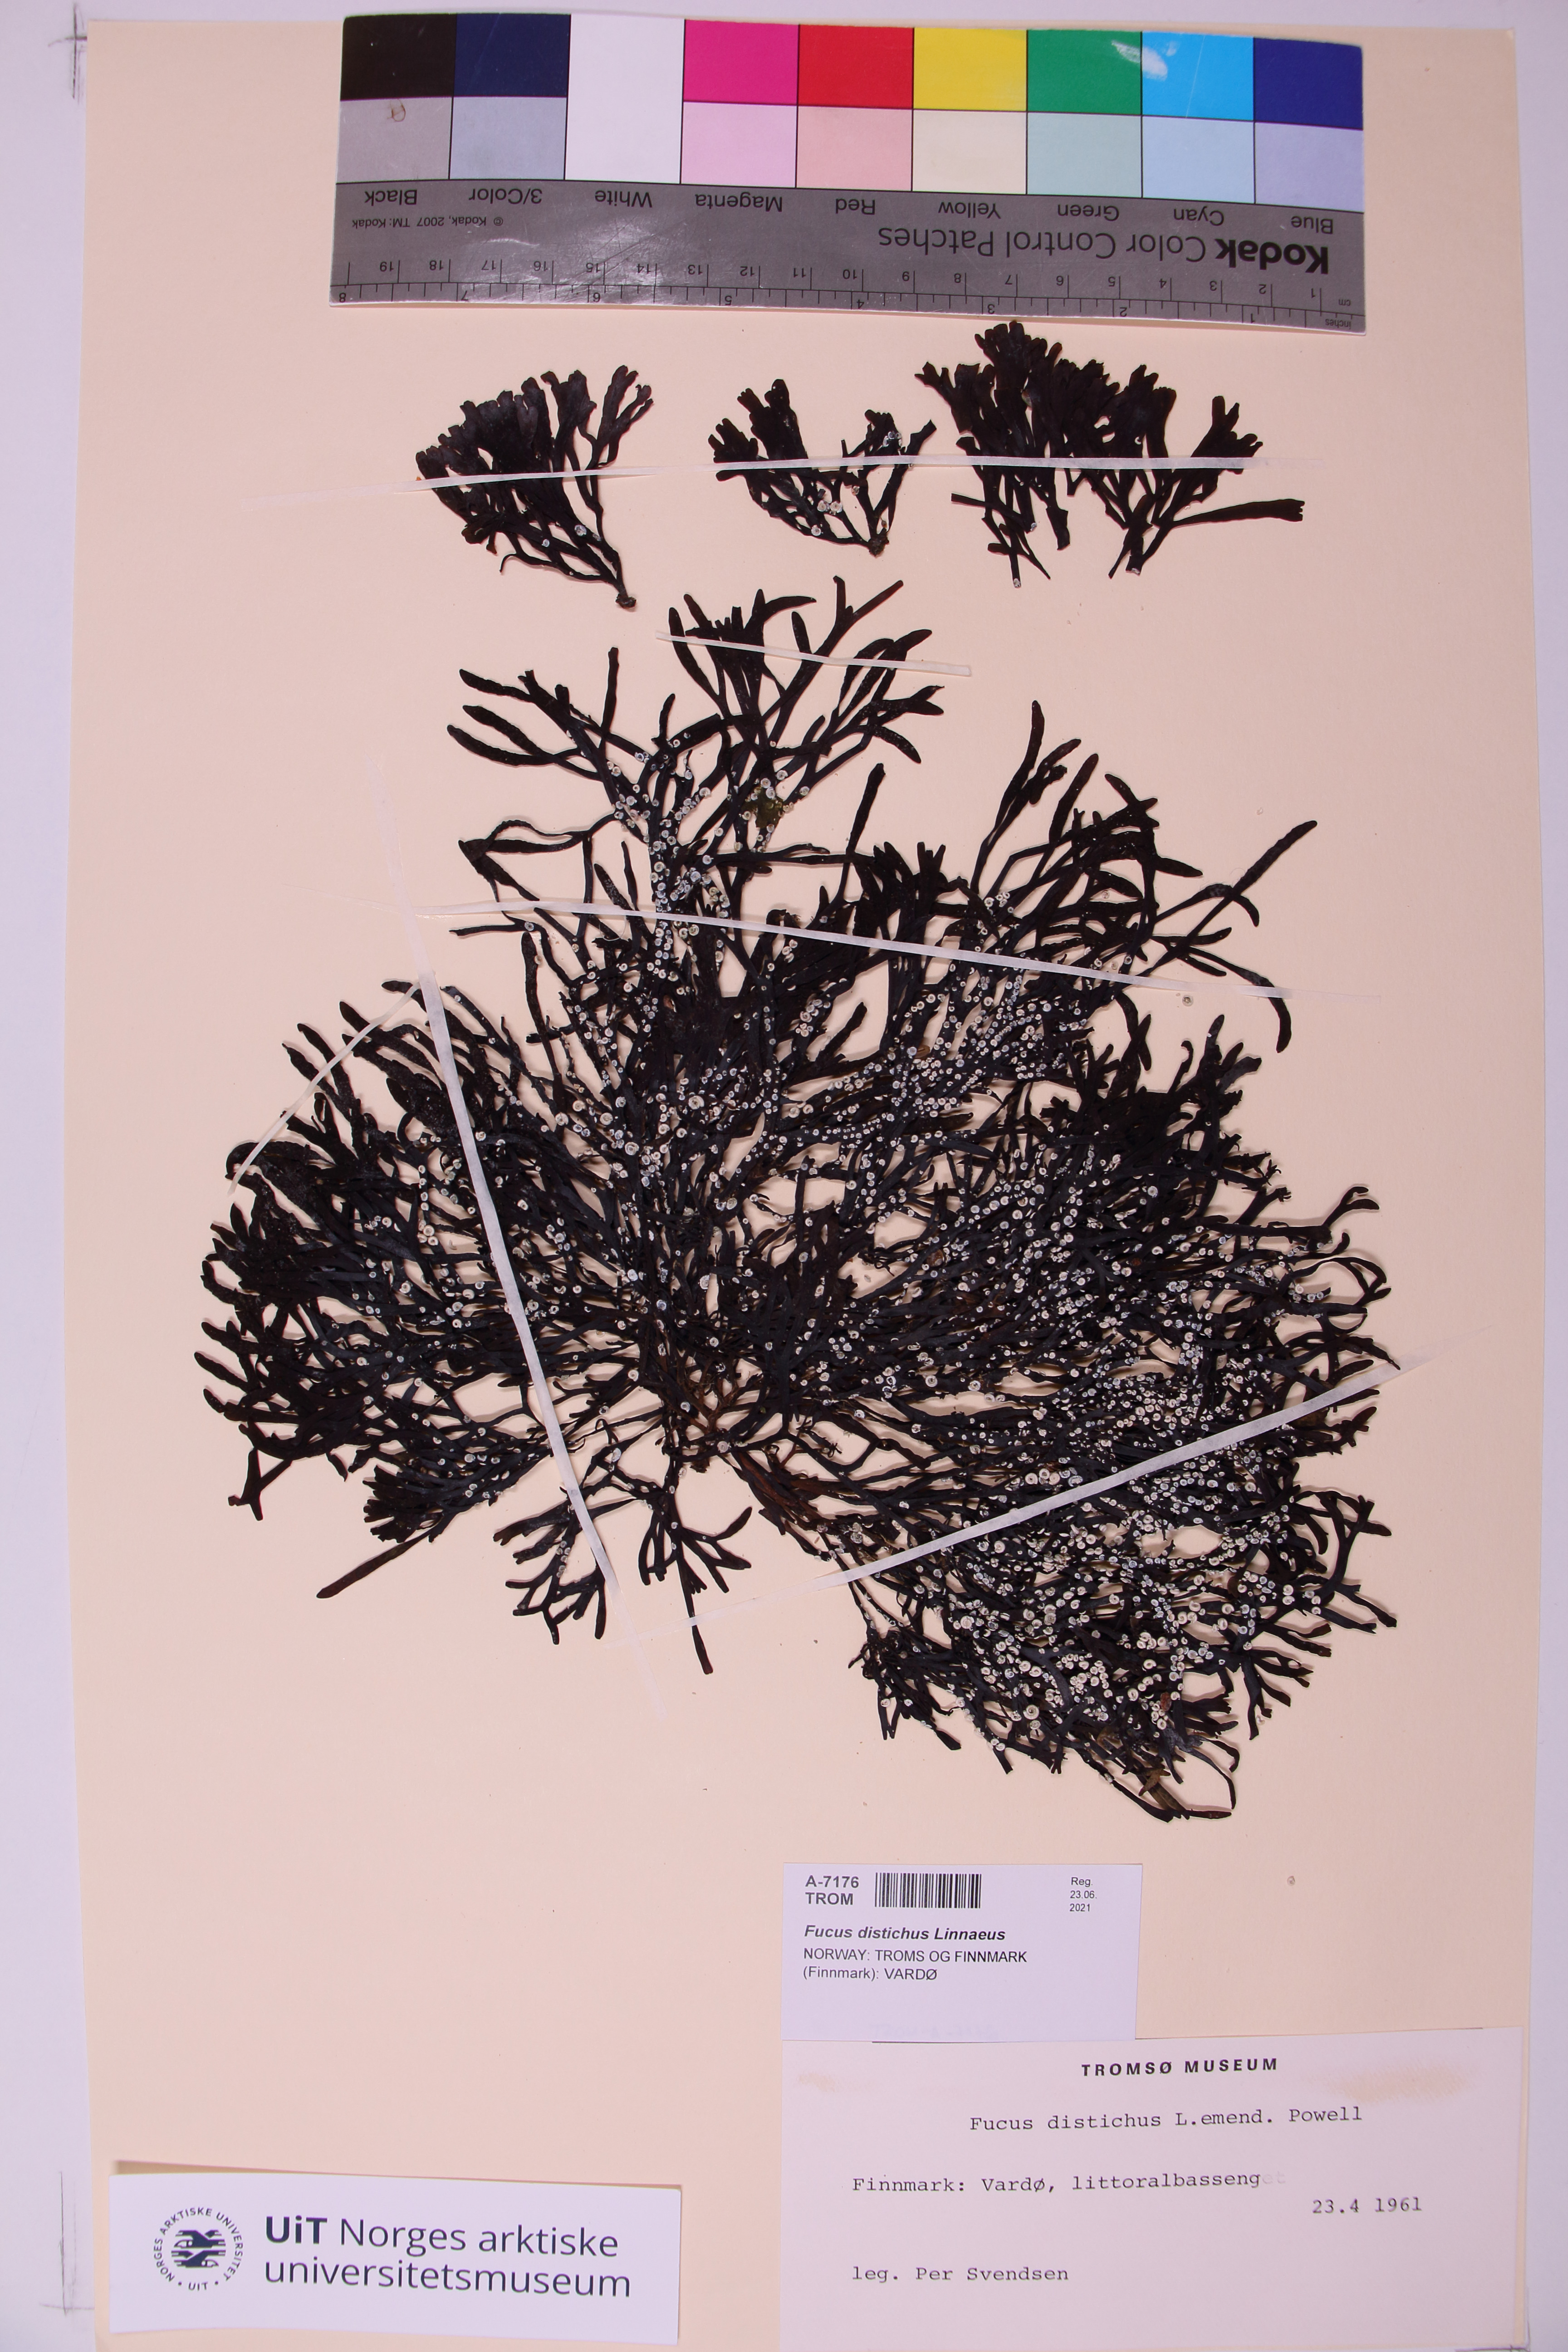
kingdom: Chromista
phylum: Ochrophyta
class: Phaeophyceae
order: Fucales
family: Fucaceae
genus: Fucus
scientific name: Fucus distichus
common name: Rockweed
